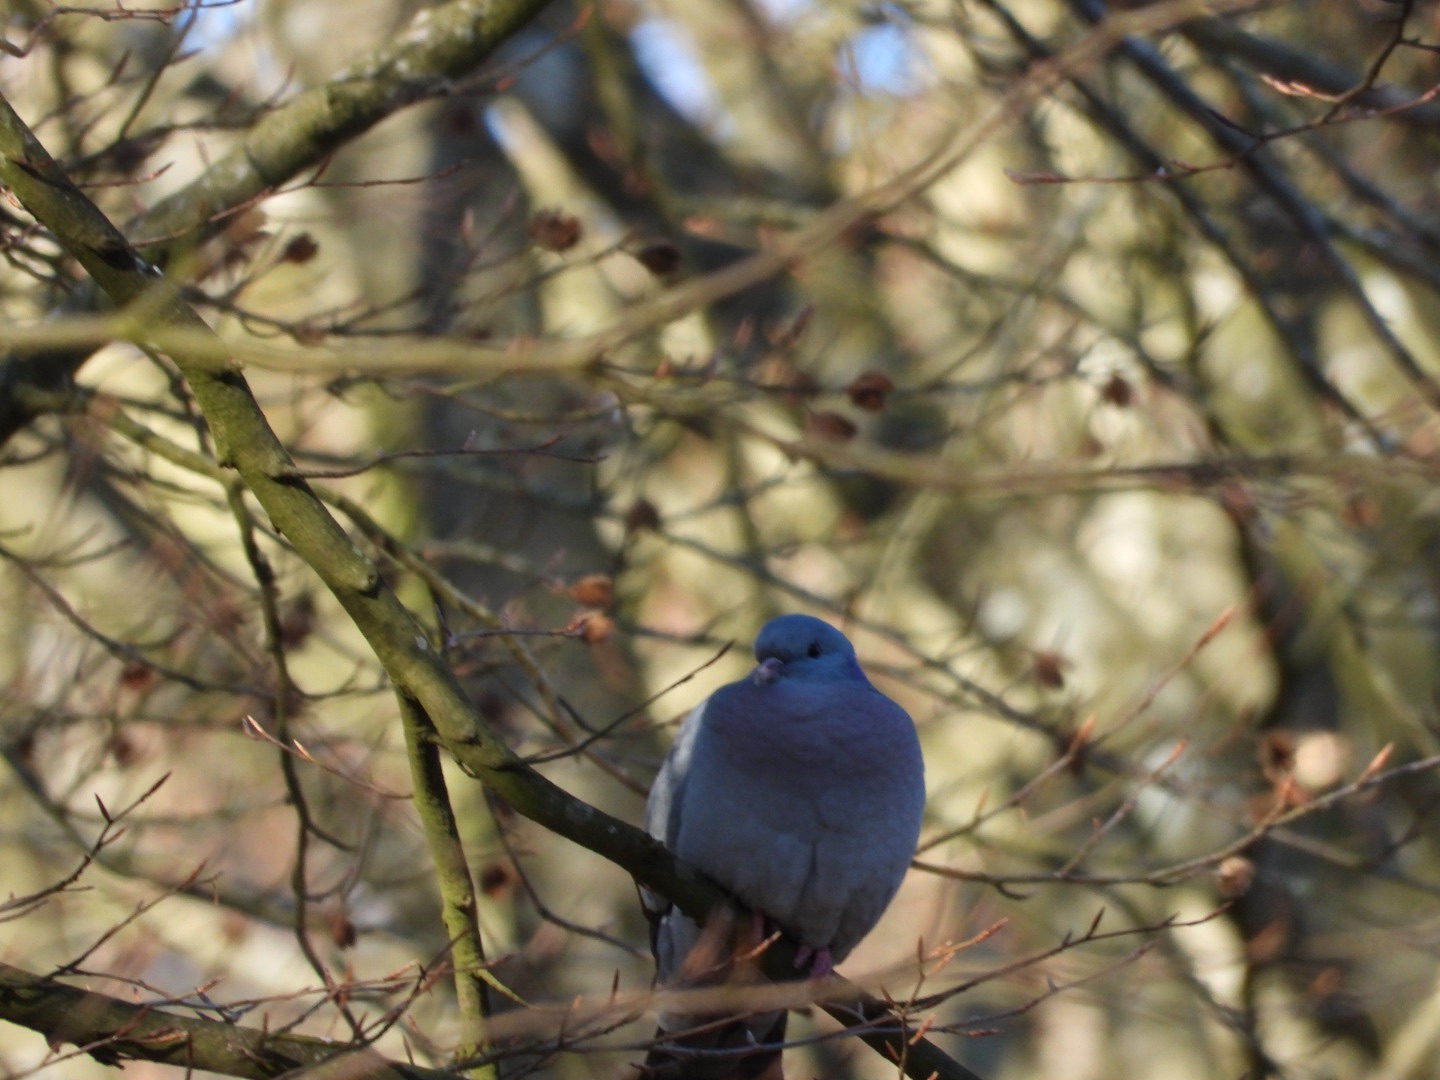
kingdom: Animalia
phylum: Chordata
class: Aves
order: Columbiformes
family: Columbidae
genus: Columba
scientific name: Columba oenas
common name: Huldue
